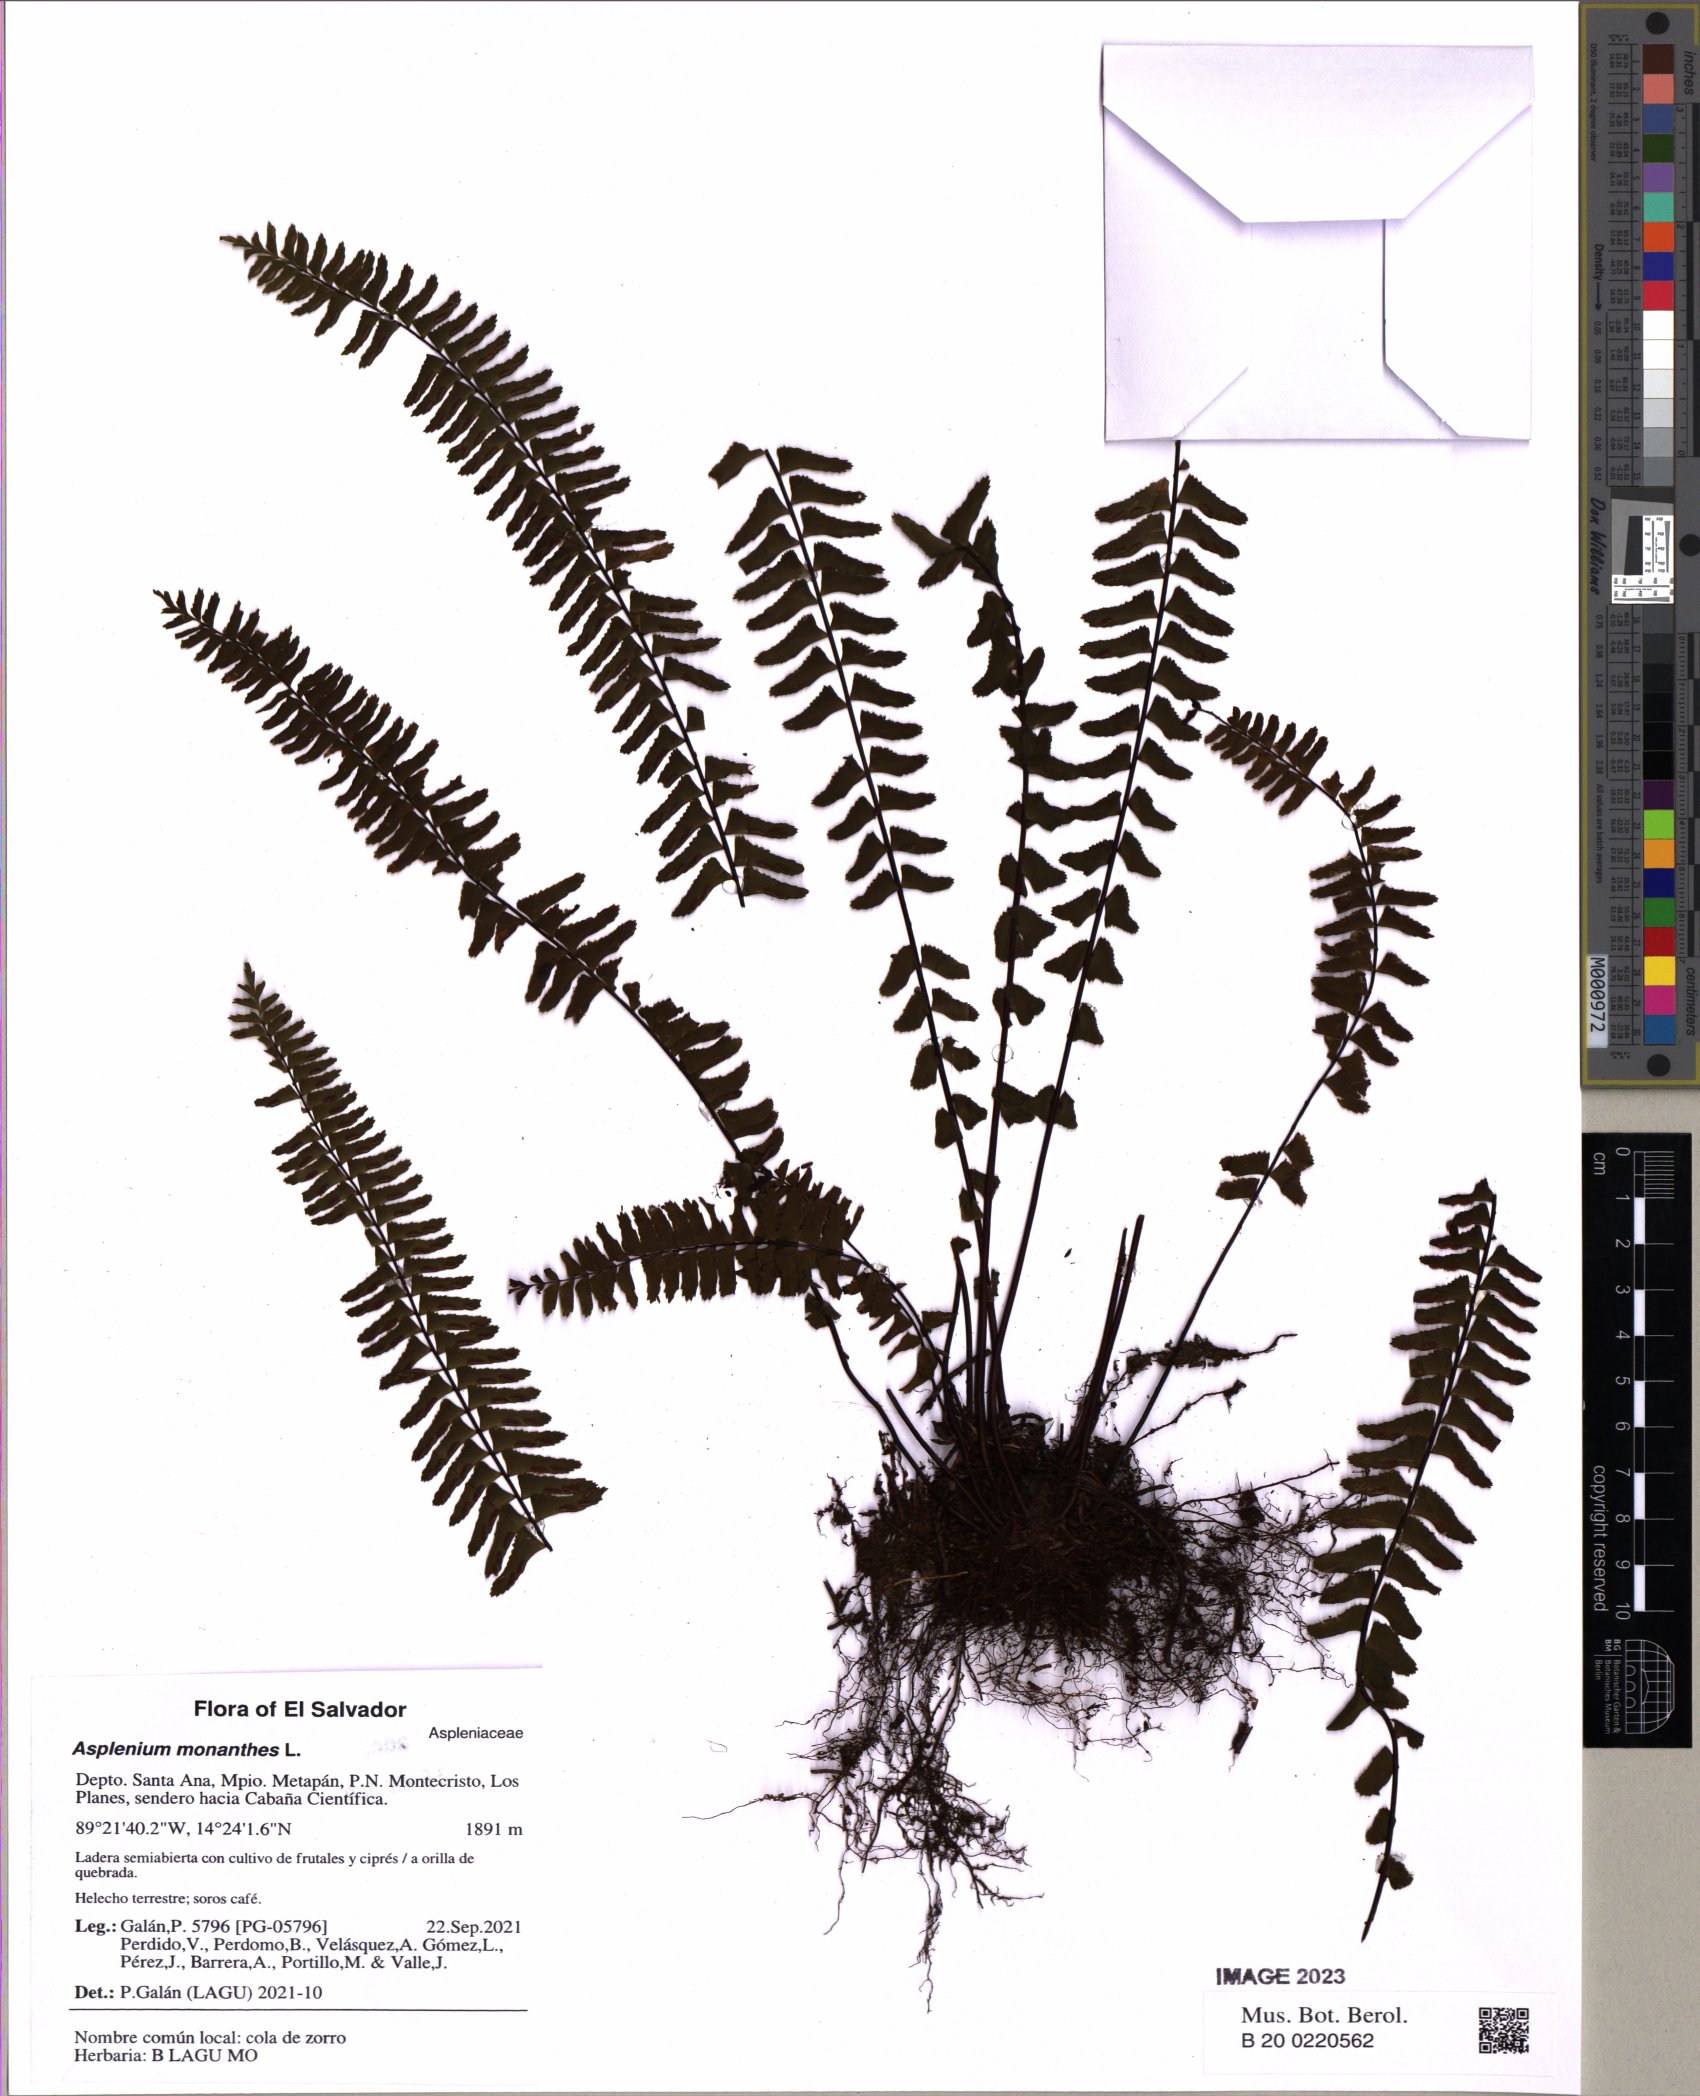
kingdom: Plantae
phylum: Tracheophyta
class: Polypodiopsida
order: Polypodiales
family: Aspleniaceae
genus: Asplenium
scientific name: Asplenium monanthes
